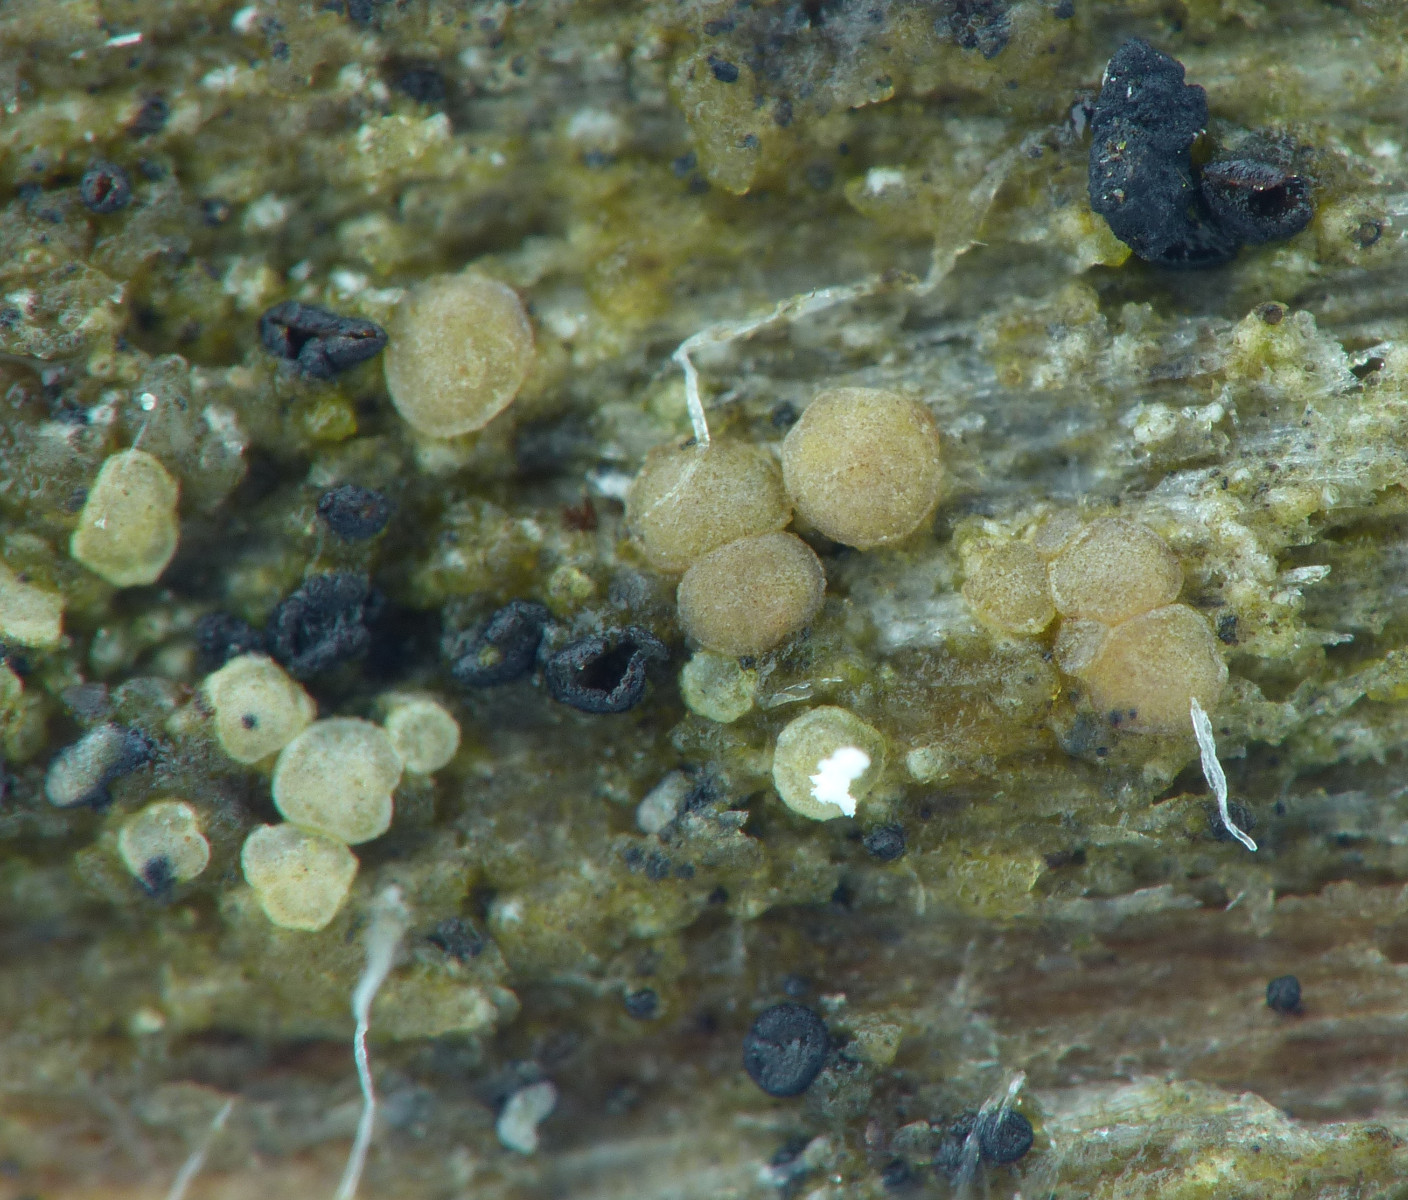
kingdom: Fungi
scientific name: Fungi
